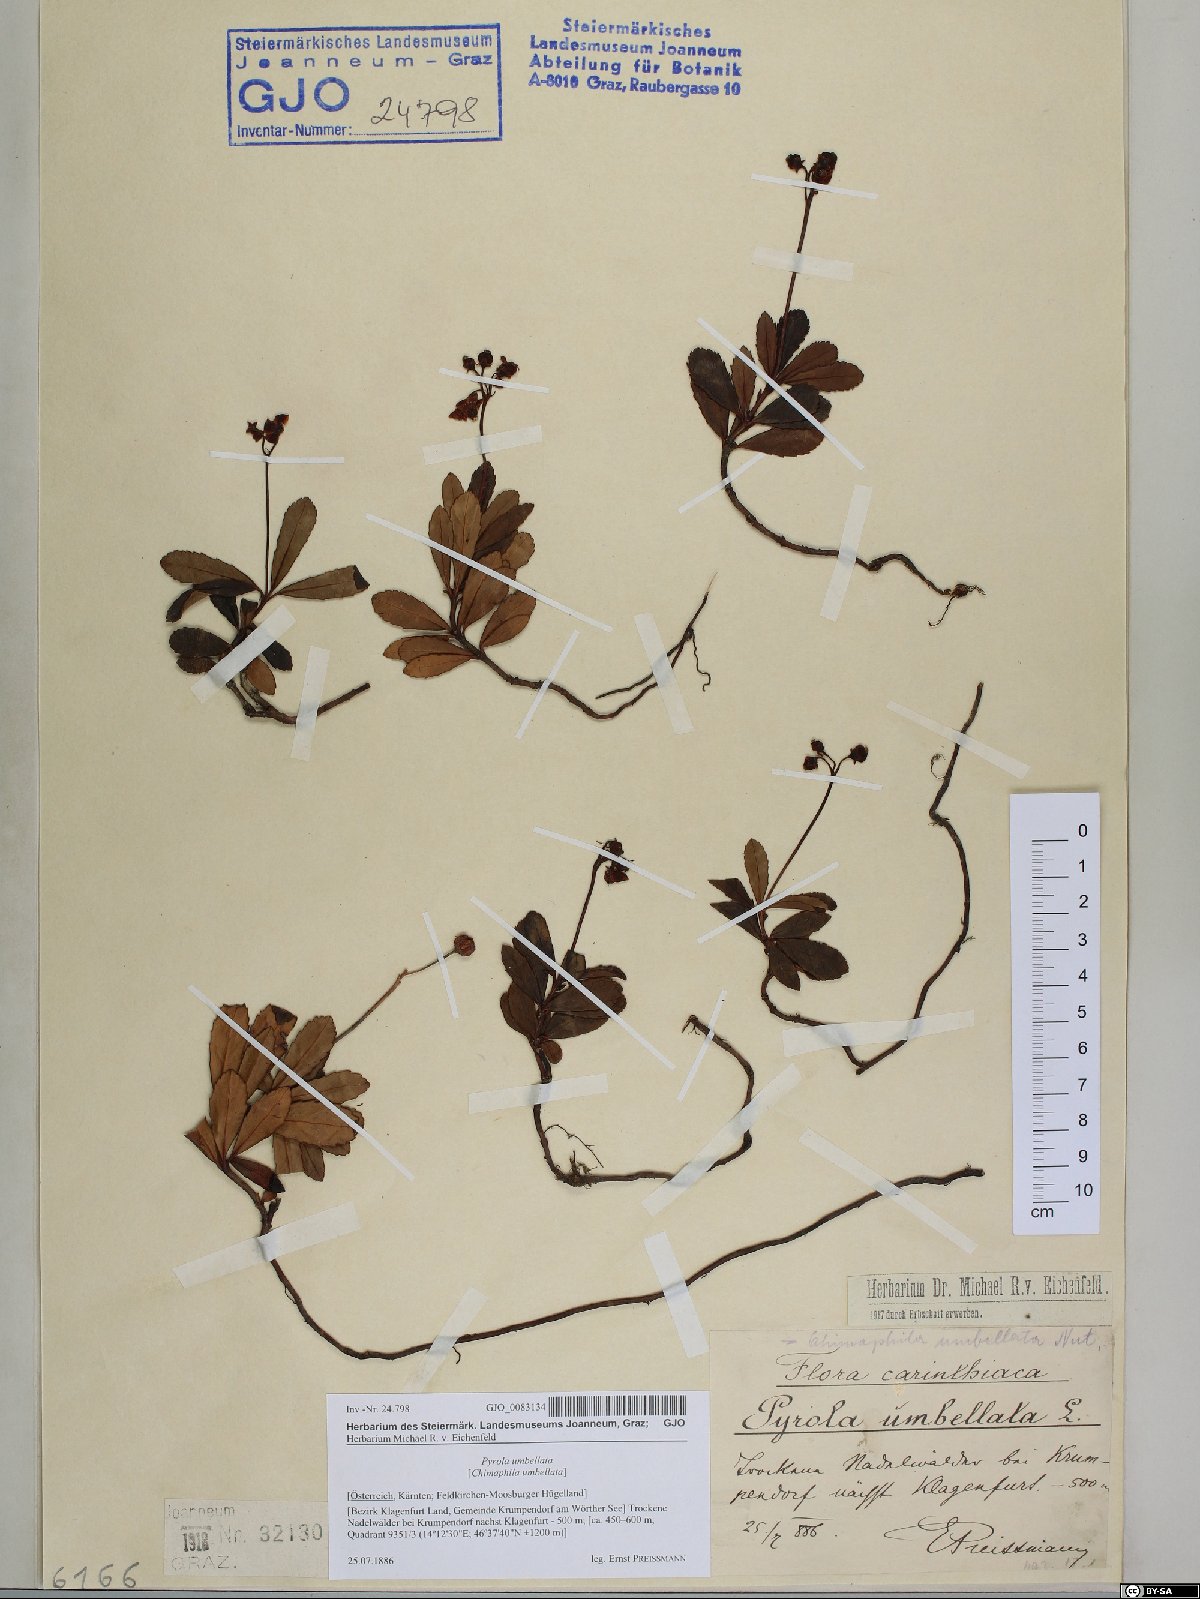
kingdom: Plantae
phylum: Tracheophyta
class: Magnoliopsida
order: Ericales
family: Ericaceae
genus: Chimaphila
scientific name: Chimaphila umbellata
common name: Pipsissewa
